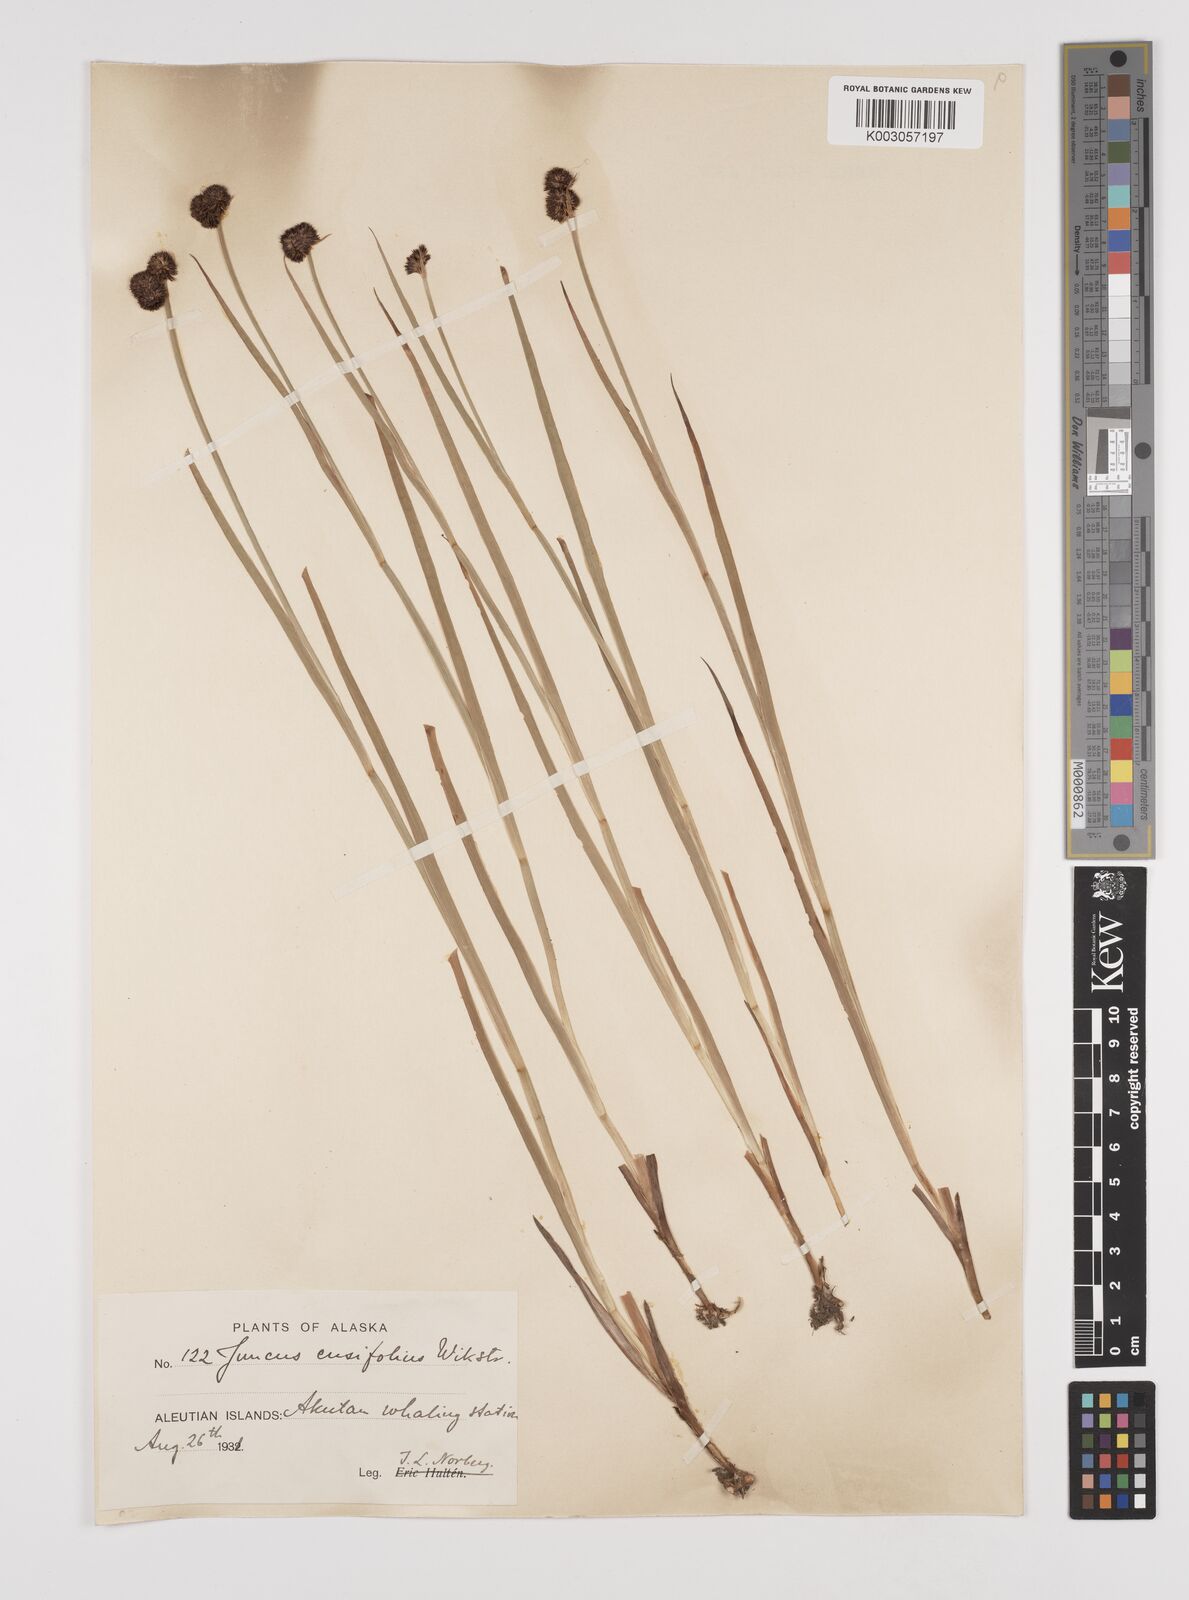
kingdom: Plantae
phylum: Tracheophyta
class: Liliopsida
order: Poales
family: Juncaceae
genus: Juncus
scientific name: Juncus ensifolius
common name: Sword-leaved rush
